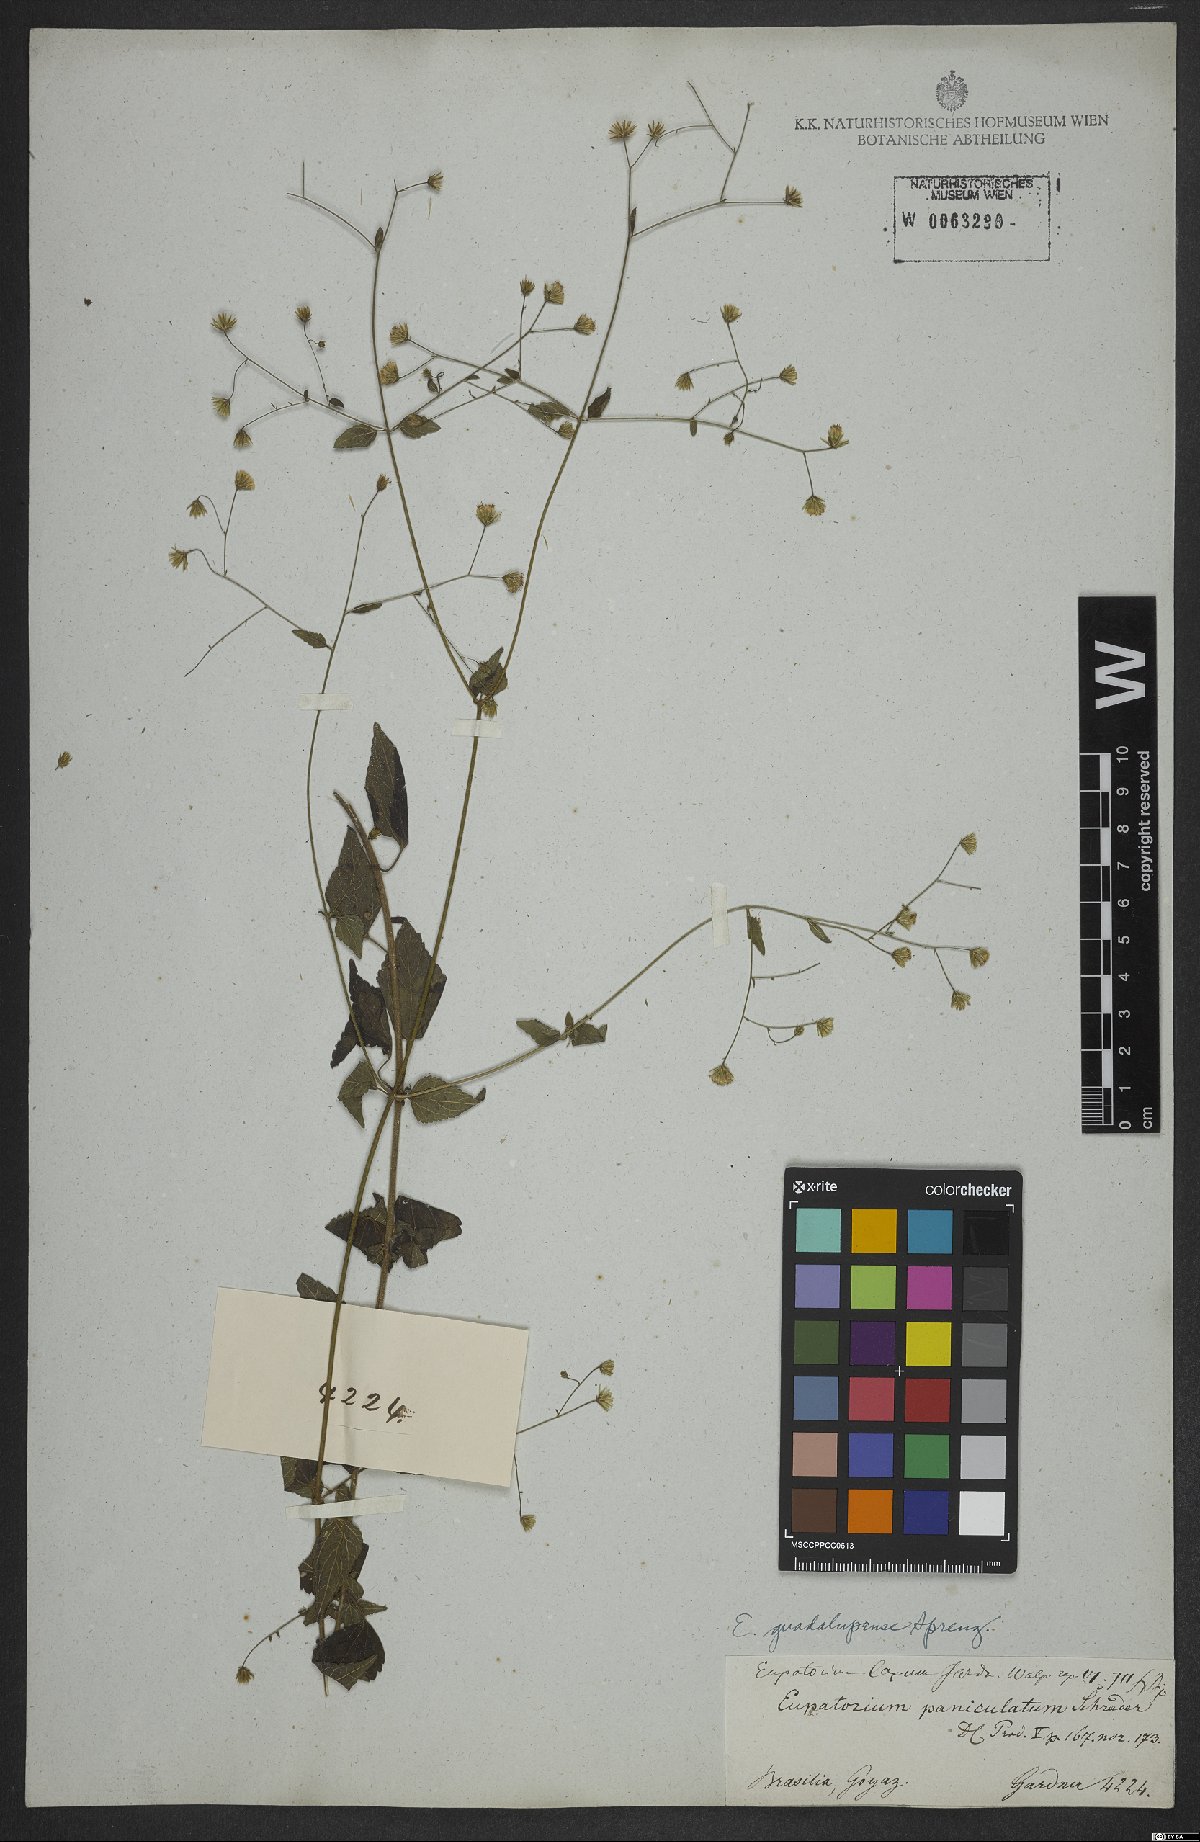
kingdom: Plantae
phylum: Tracheophyta
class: Magnoliopsida
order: Asterales
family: Asteraceae
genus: Fleischmannia
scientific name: Fleischmannia microstemon
